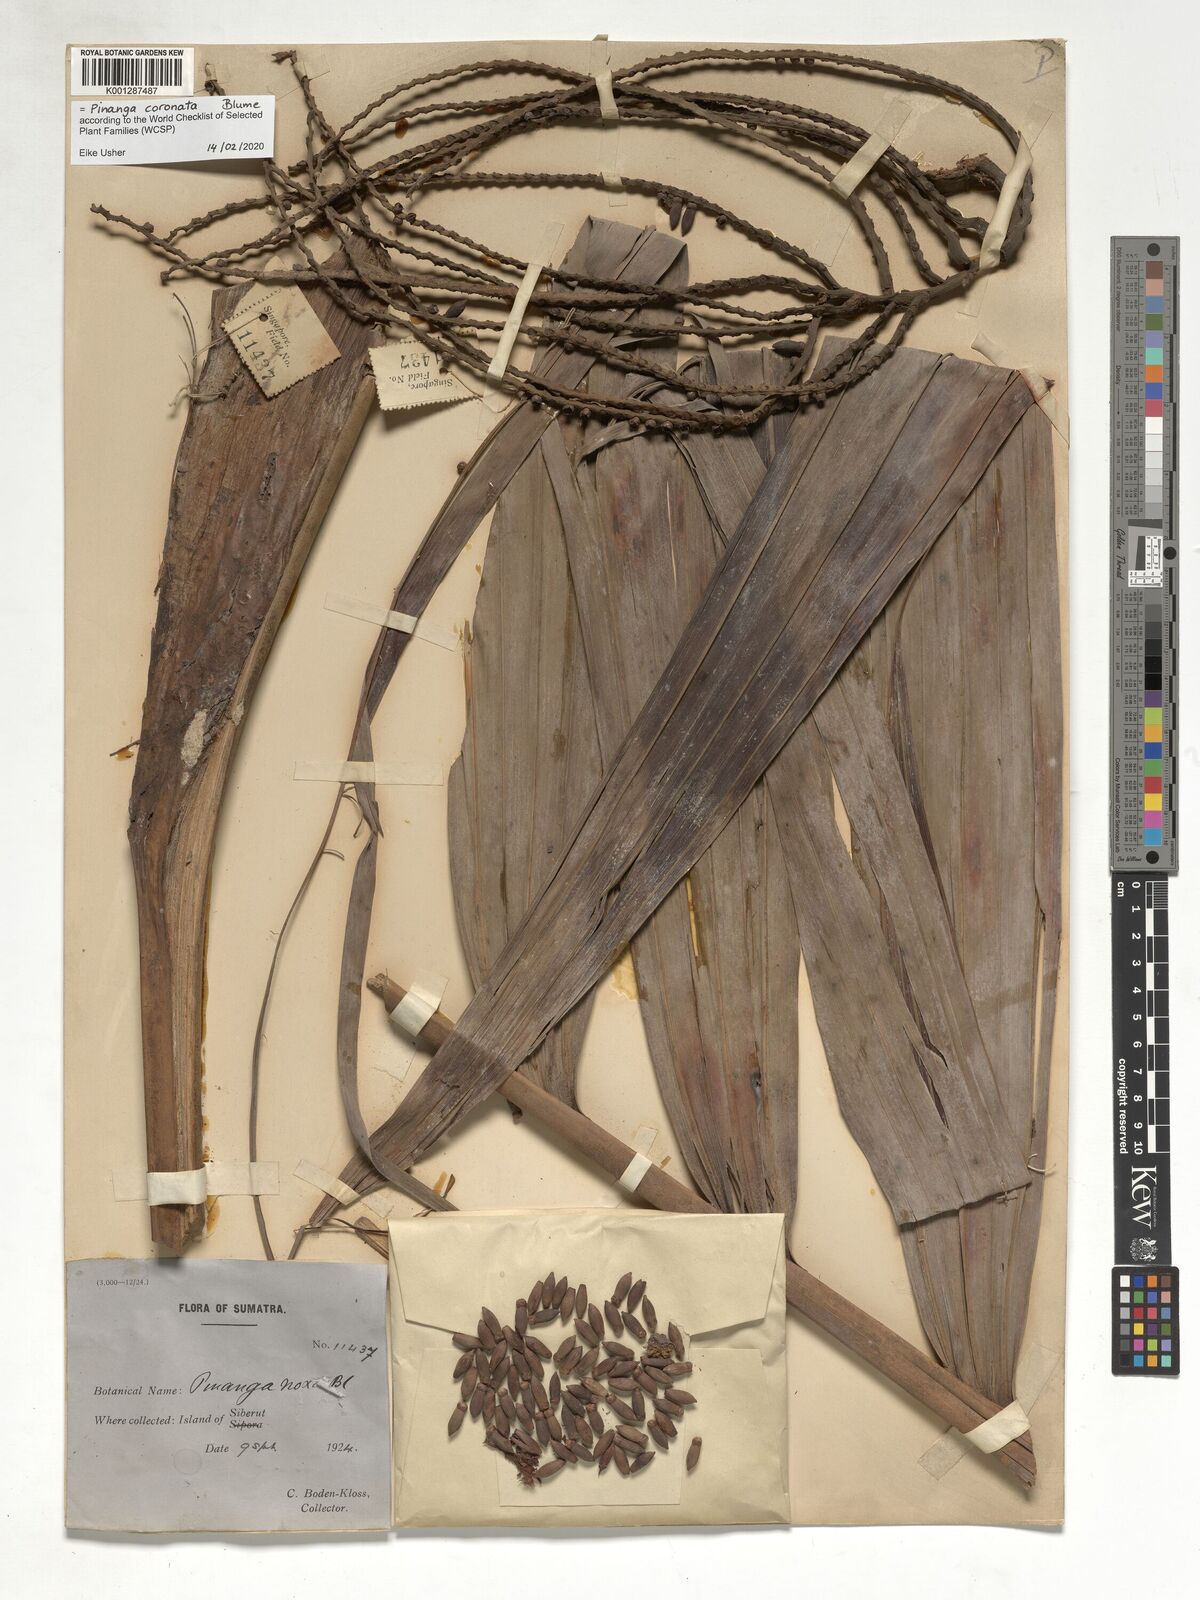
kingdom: Plantae
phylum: Tracheophyta
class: Liliopsida
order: Arecales
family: Arecaceae
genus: Pinanga
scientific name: Pinanga coronata
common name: Ivory cane palm
